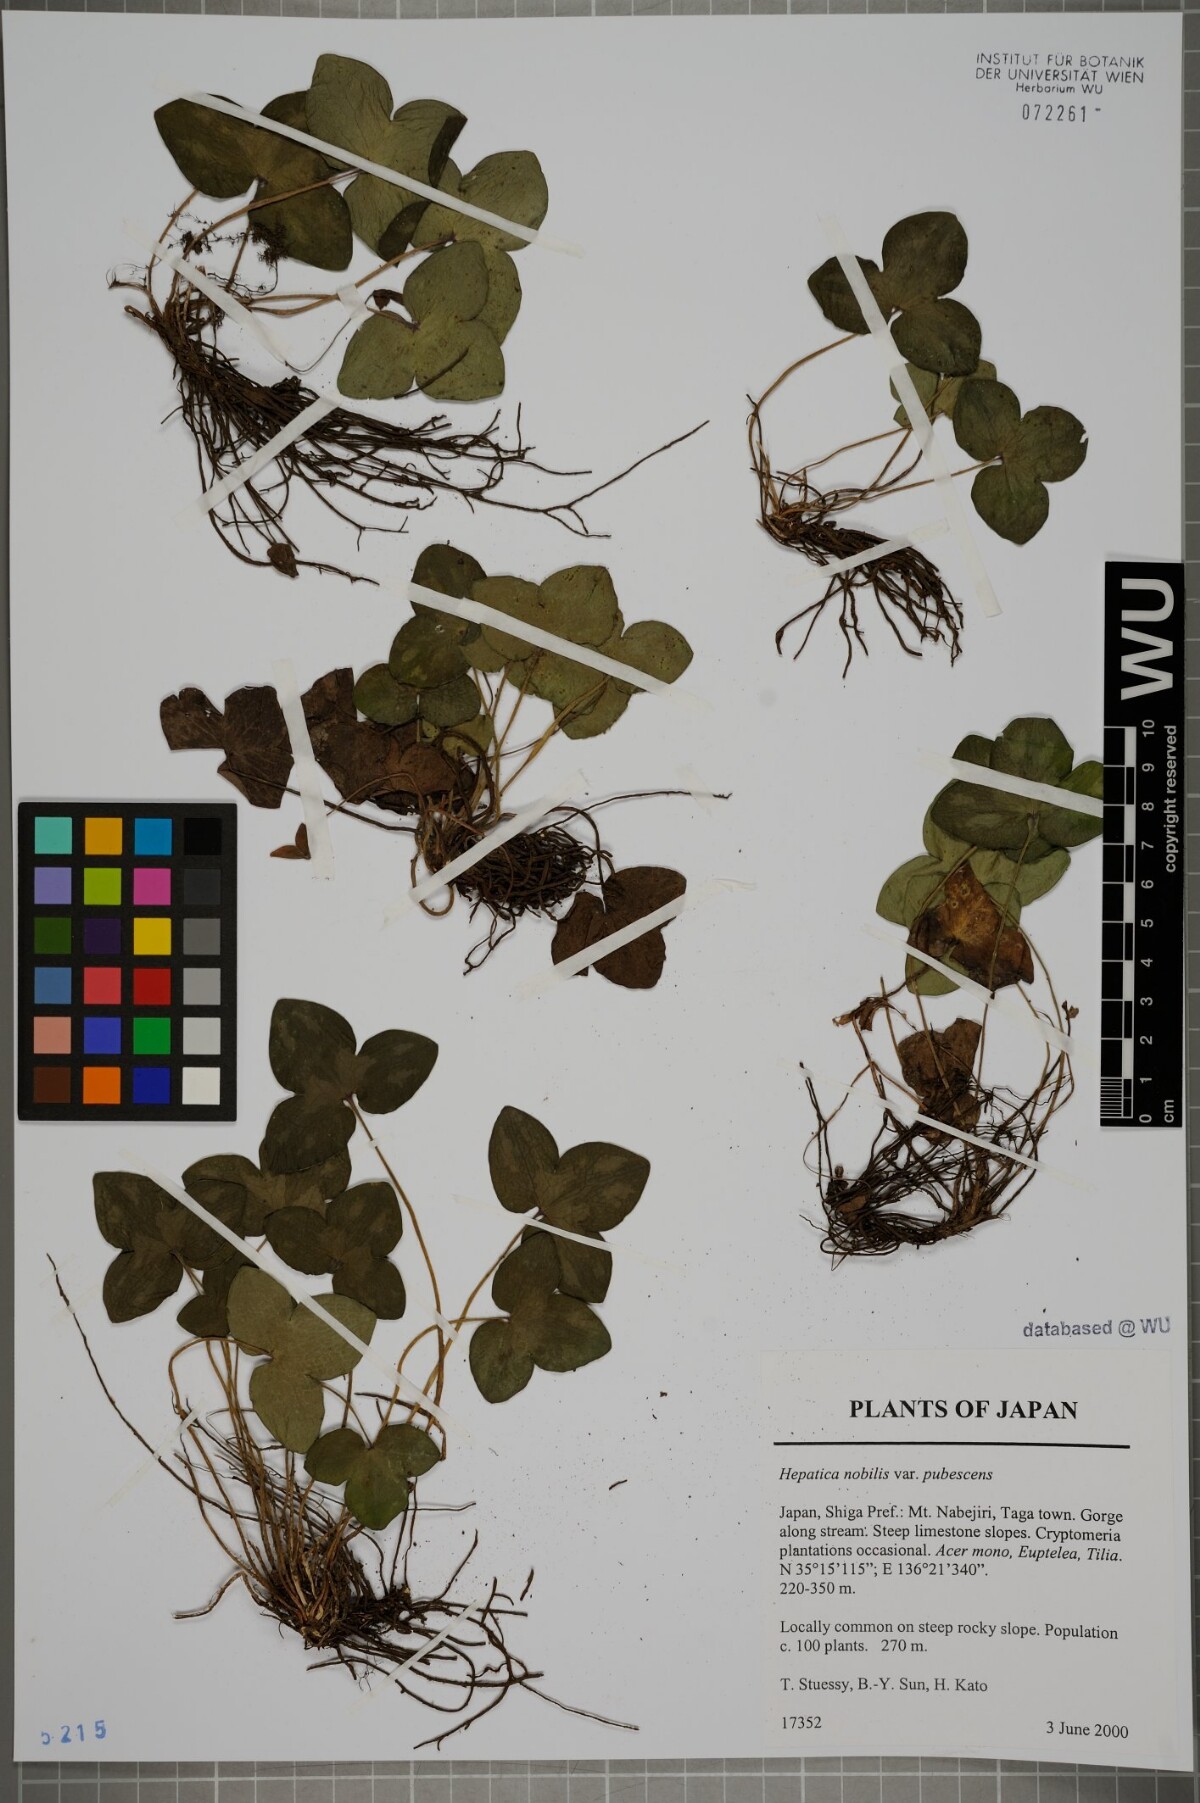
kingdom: Plantae
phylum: Tracheophyta
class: Magnoliopsida
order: Ranunculales
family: Ranunculaceae
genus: Hepatica
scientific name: Hepatica nobilis
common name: Liverleaf
